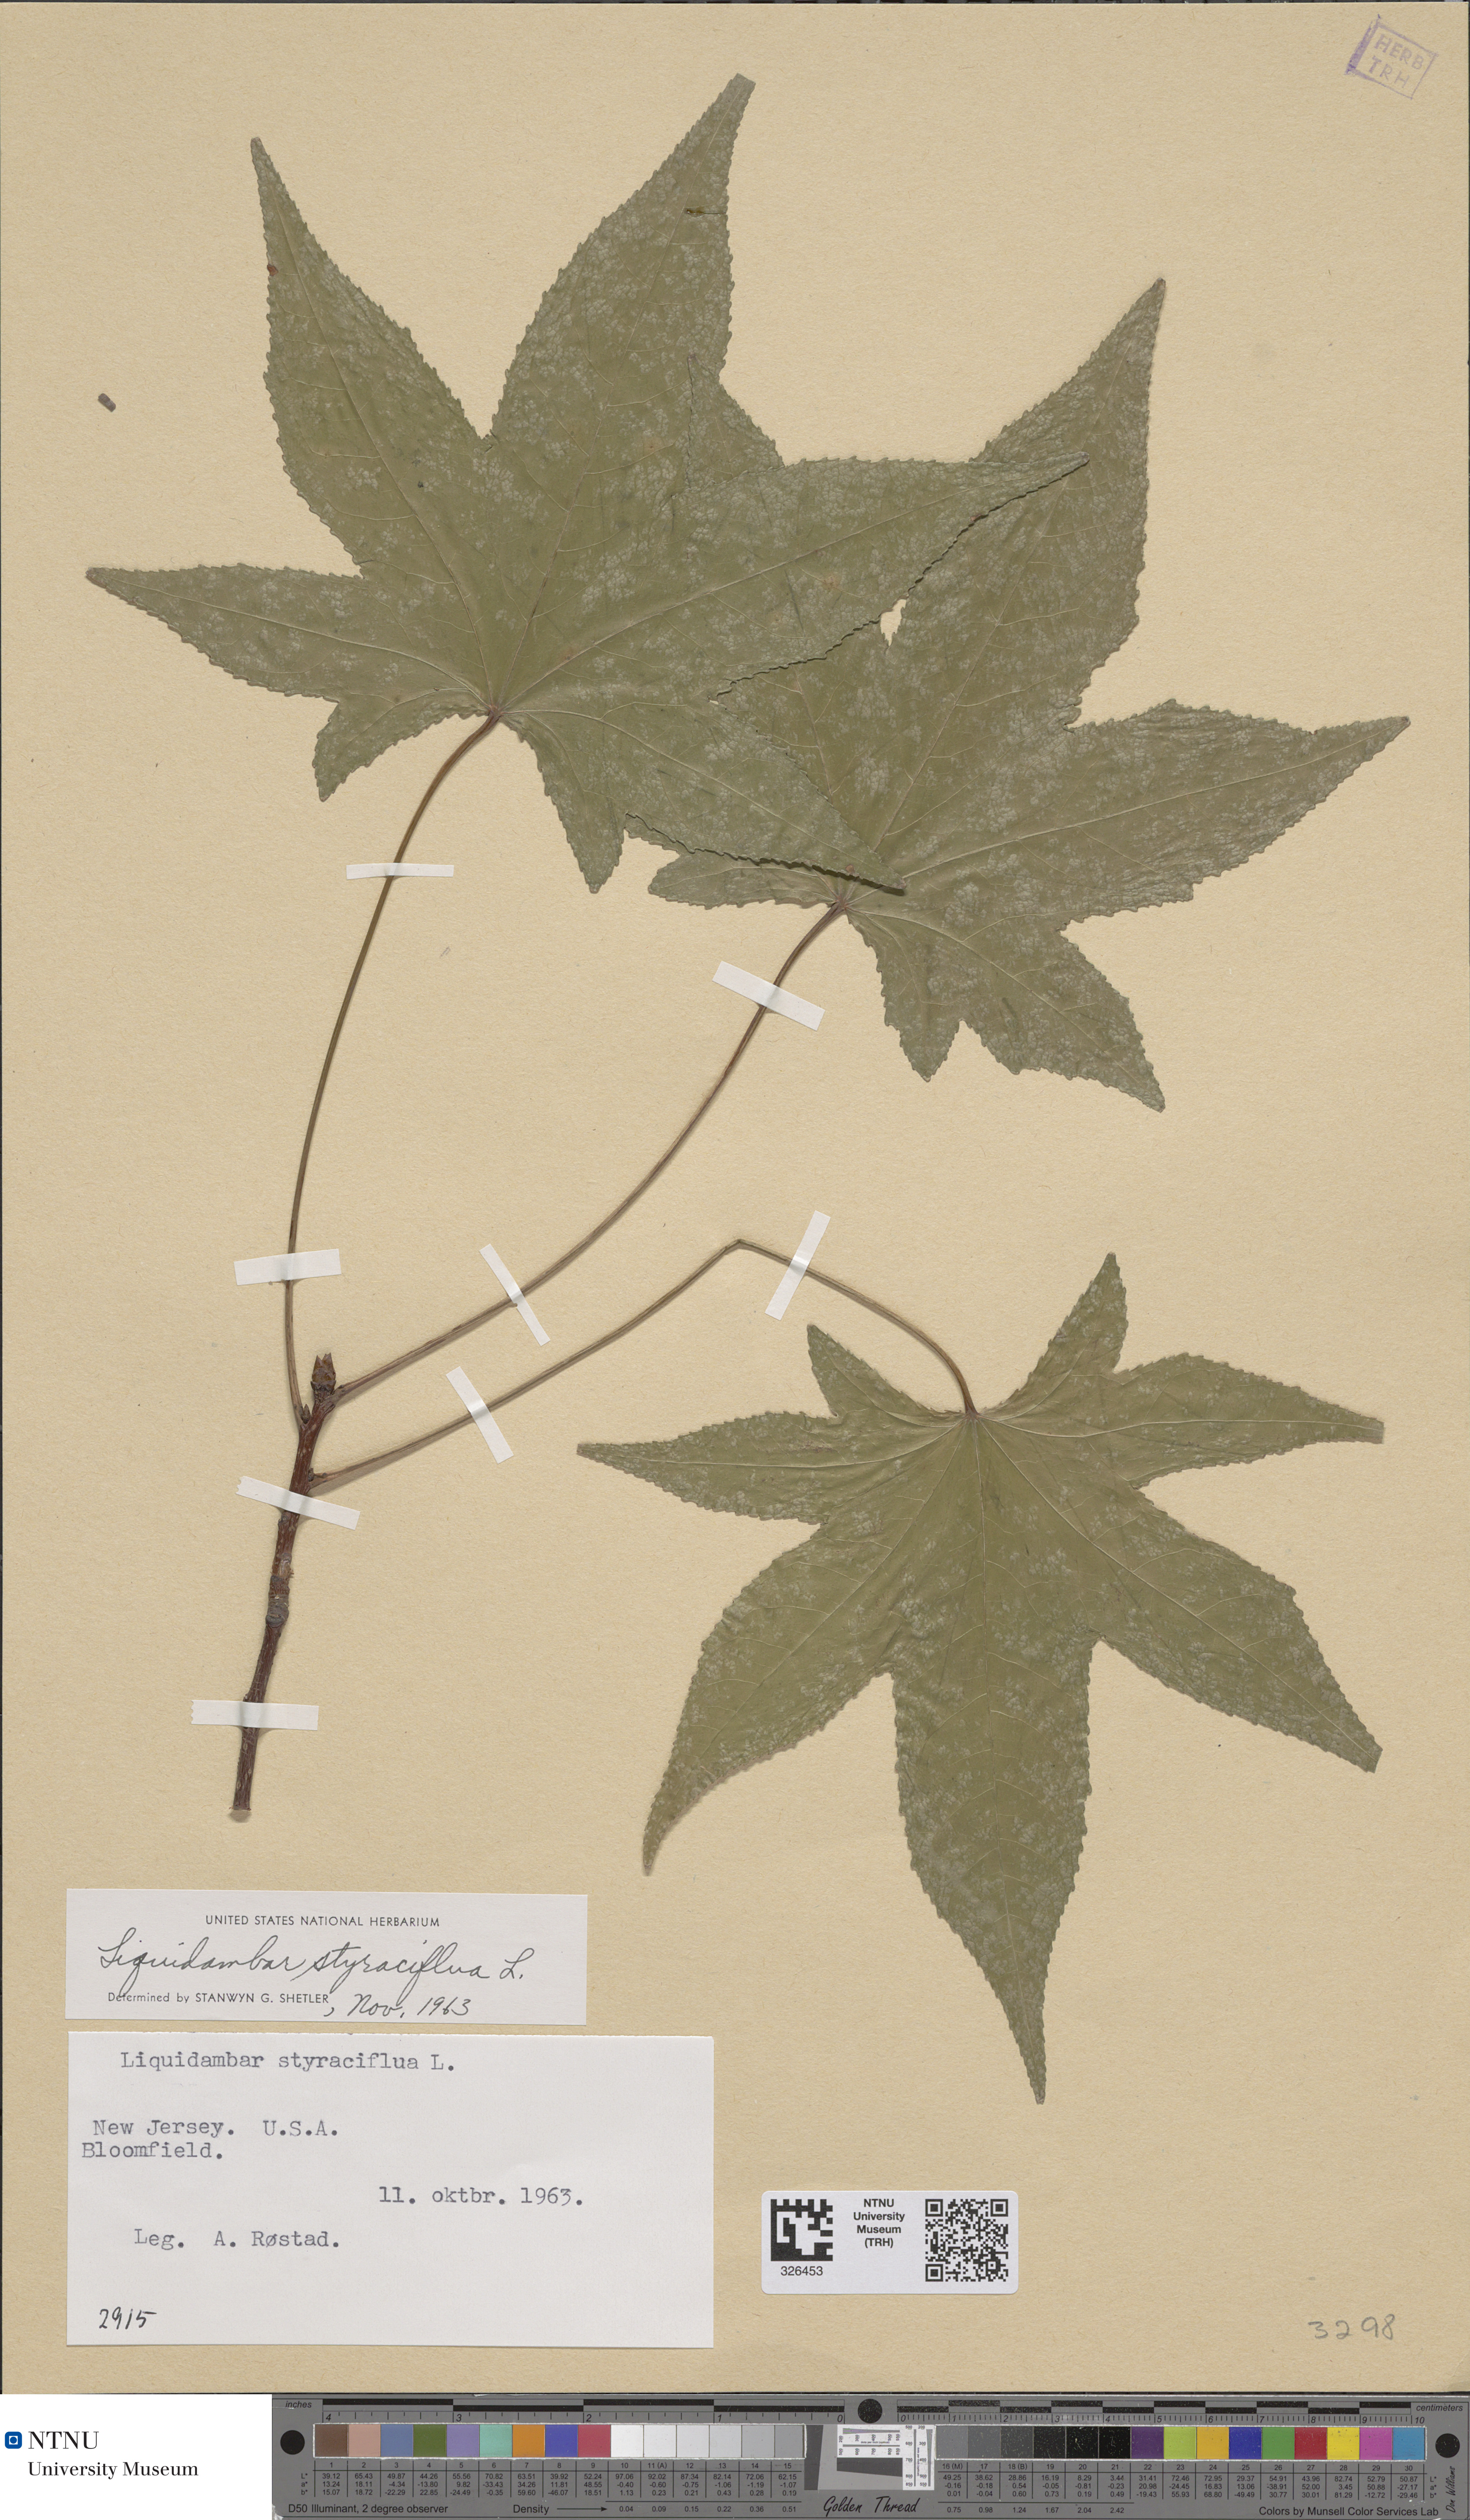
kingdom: Plantae
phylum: Tracheophyta
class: Magnoliopsida
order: Saxifragales
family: Altingiaceae
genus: Liquidambar
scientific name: Liquidambar styraciflua
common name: Sweet gum
